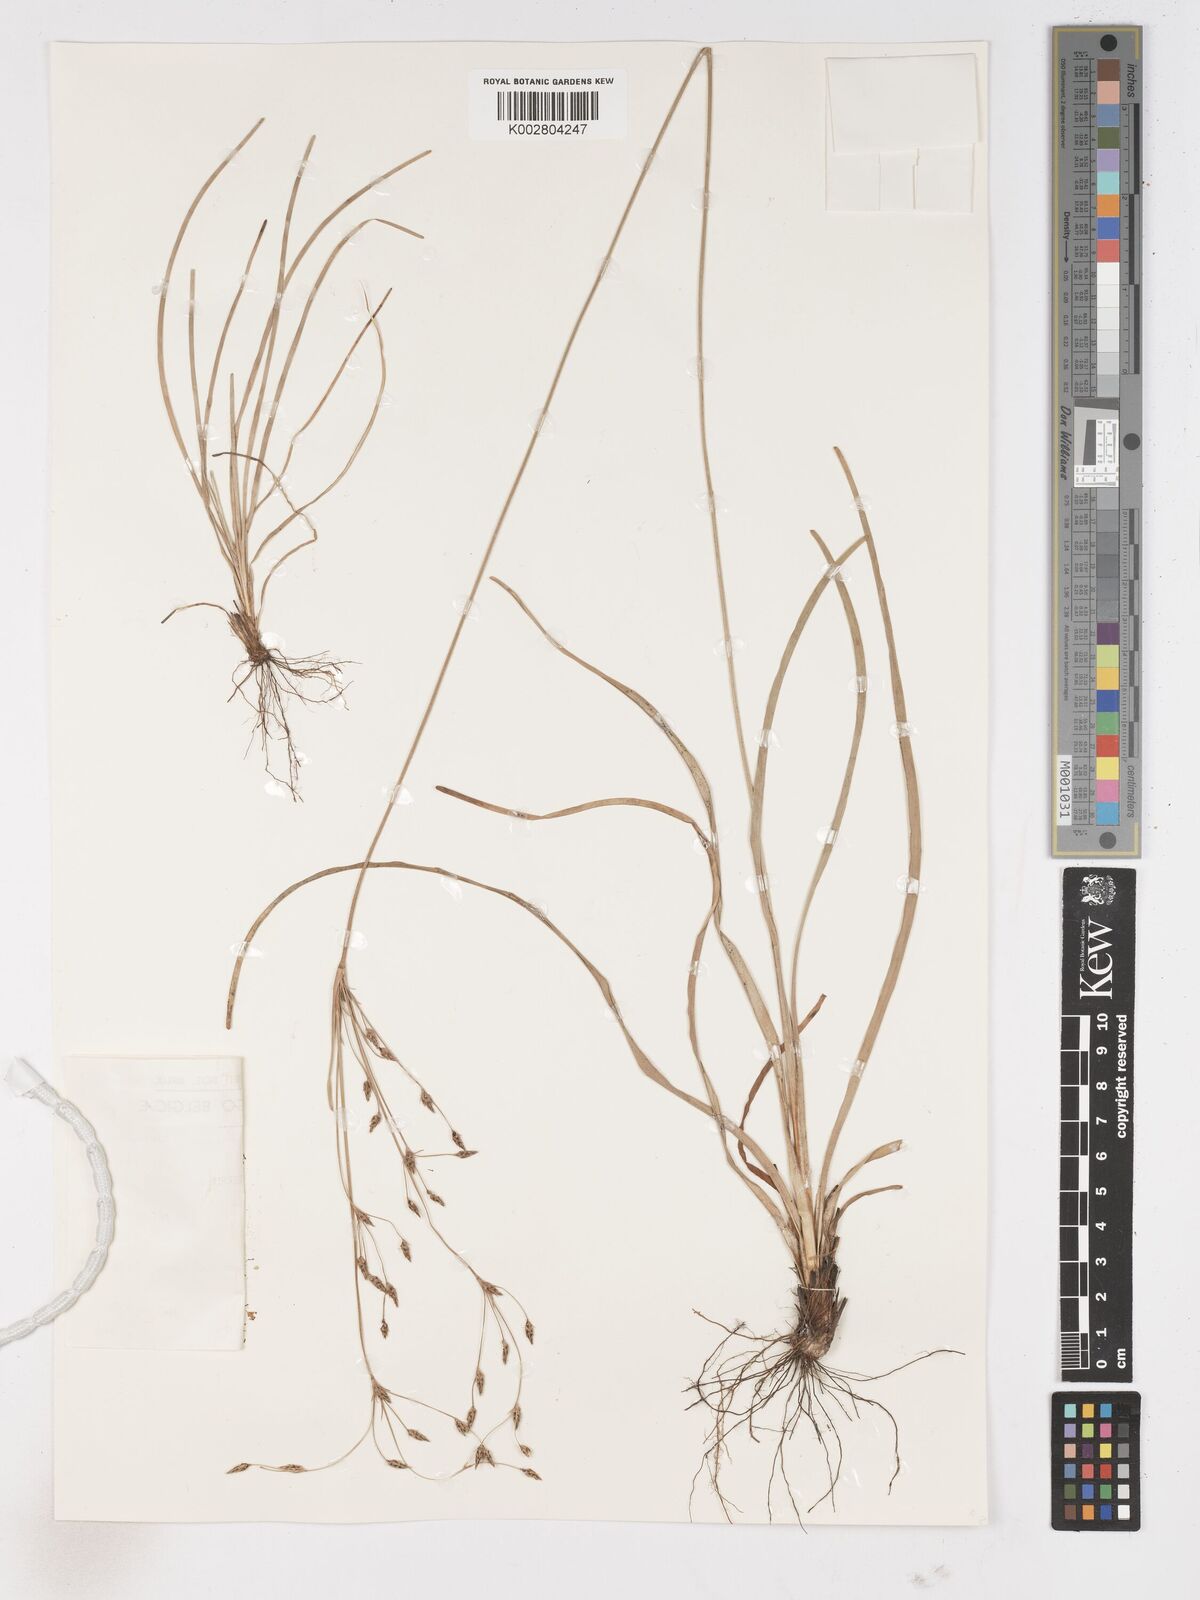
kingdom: Plantae
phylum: Tracheophyta
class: Liliopsida
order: Poales
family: Cyperaceae
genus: Fimbristylis
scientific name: Fimbristylis scabrida
